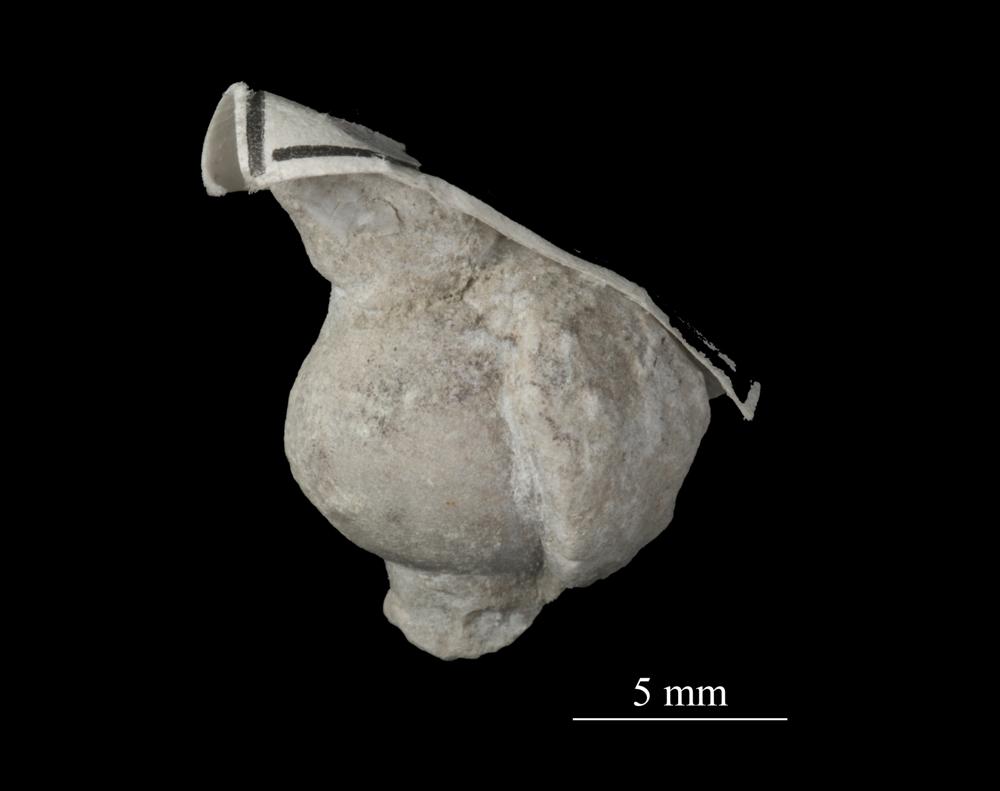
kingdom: Animalia
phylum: Mollusca
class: Gastropoda
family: Bellerophontidae
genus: Bellerophon
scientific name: Bellerophon
